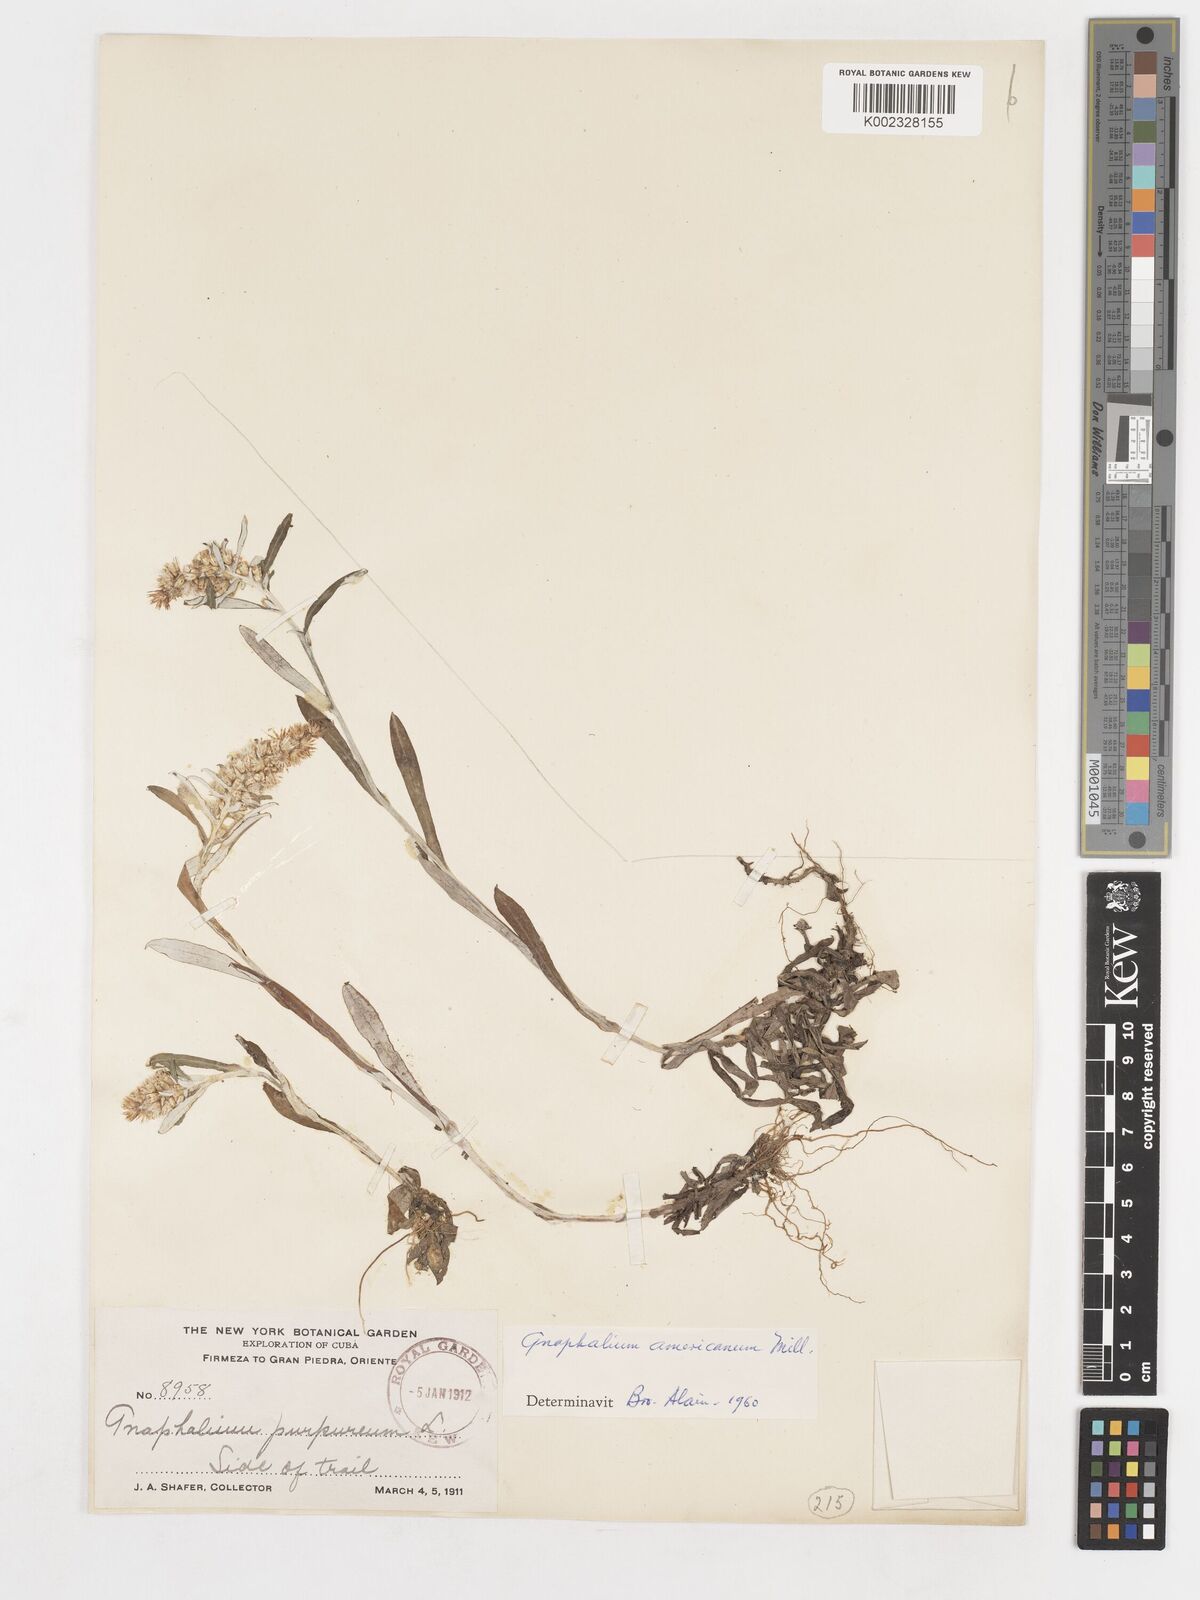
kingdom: Plantae
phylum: Tracheophyta
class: Magnoliopsida
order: Asterales
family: Asteraceae
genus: Gamochaeta
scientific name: Gamochaeta purpurea
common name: Purple cudweed
